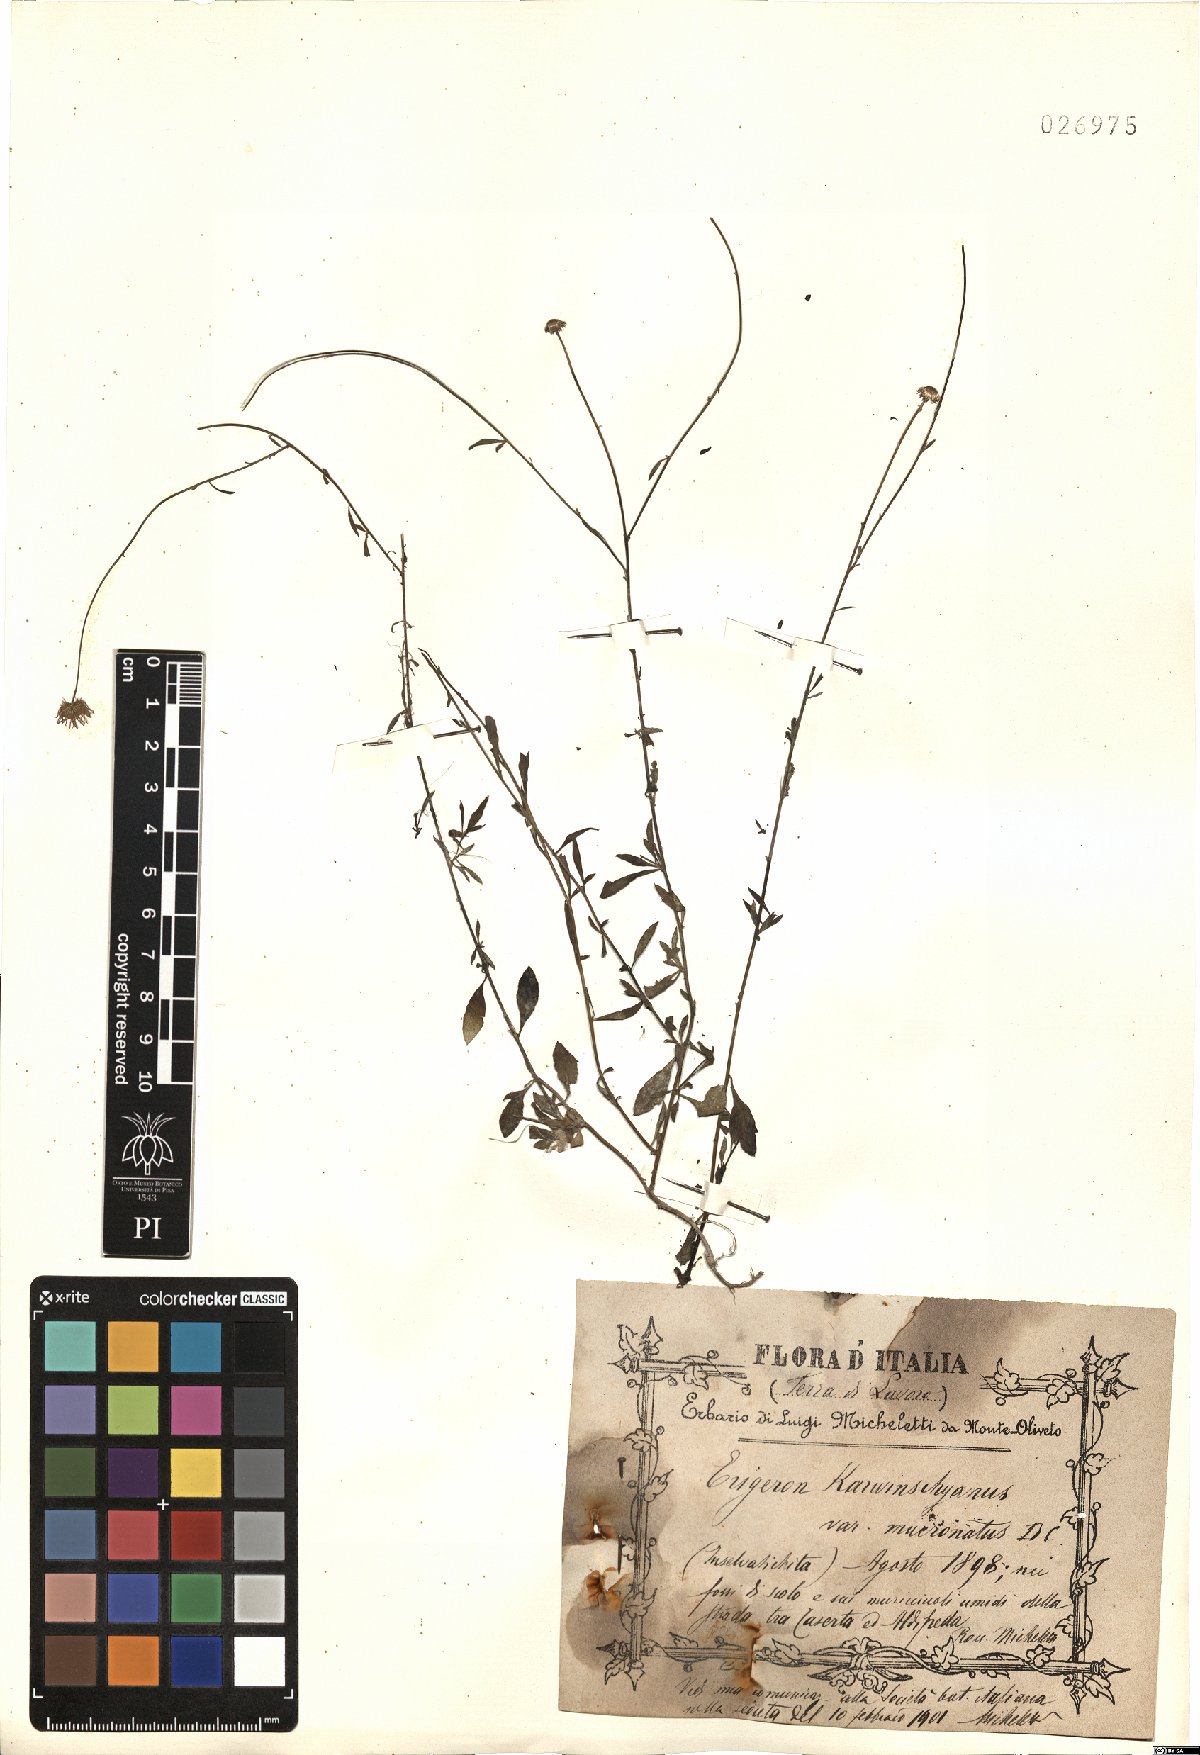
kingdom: Plantae
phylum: Tracheophyta
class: Magnoliopsida
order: Asterales
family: Asteraceae
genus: Erigeron
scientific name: Erigeron karvinskianus
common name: Mexican fleabane
